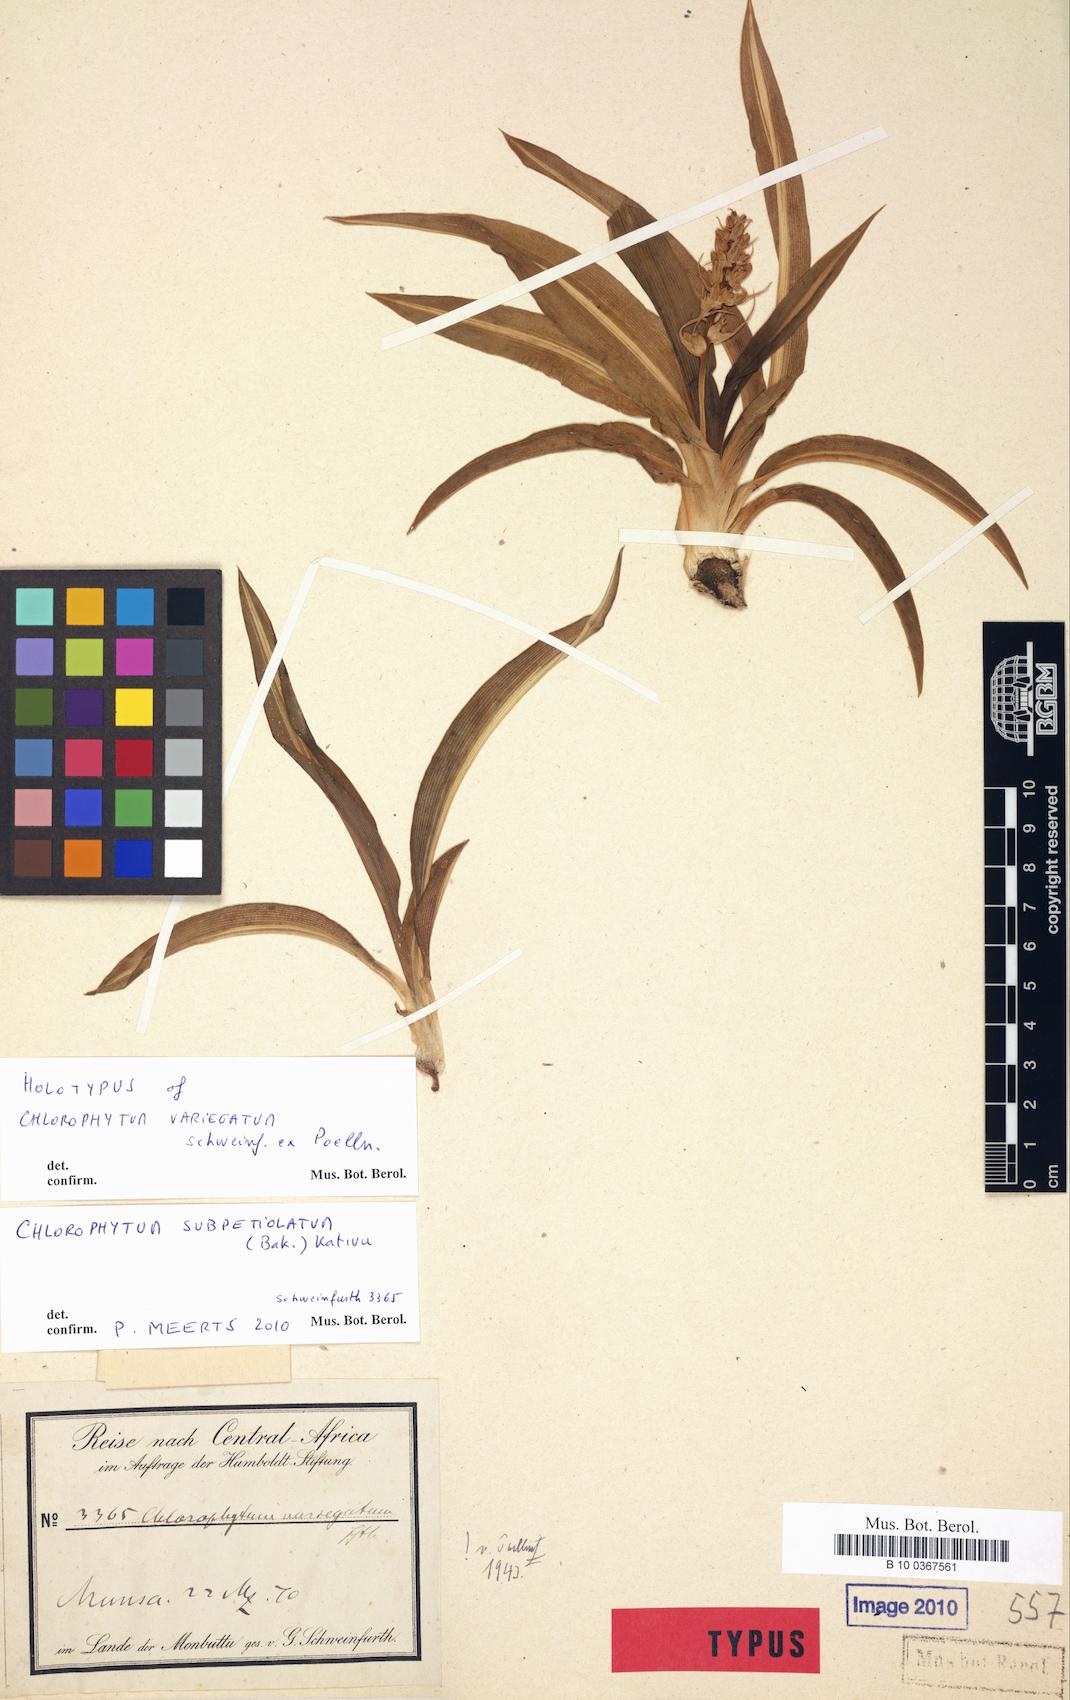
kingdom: Plantae
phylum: Tracheophyta
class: Liliopsida
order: Asparagales
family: Asparagaceae
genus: Chlorophytum
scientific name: Chlorophytum subpetiolatum
